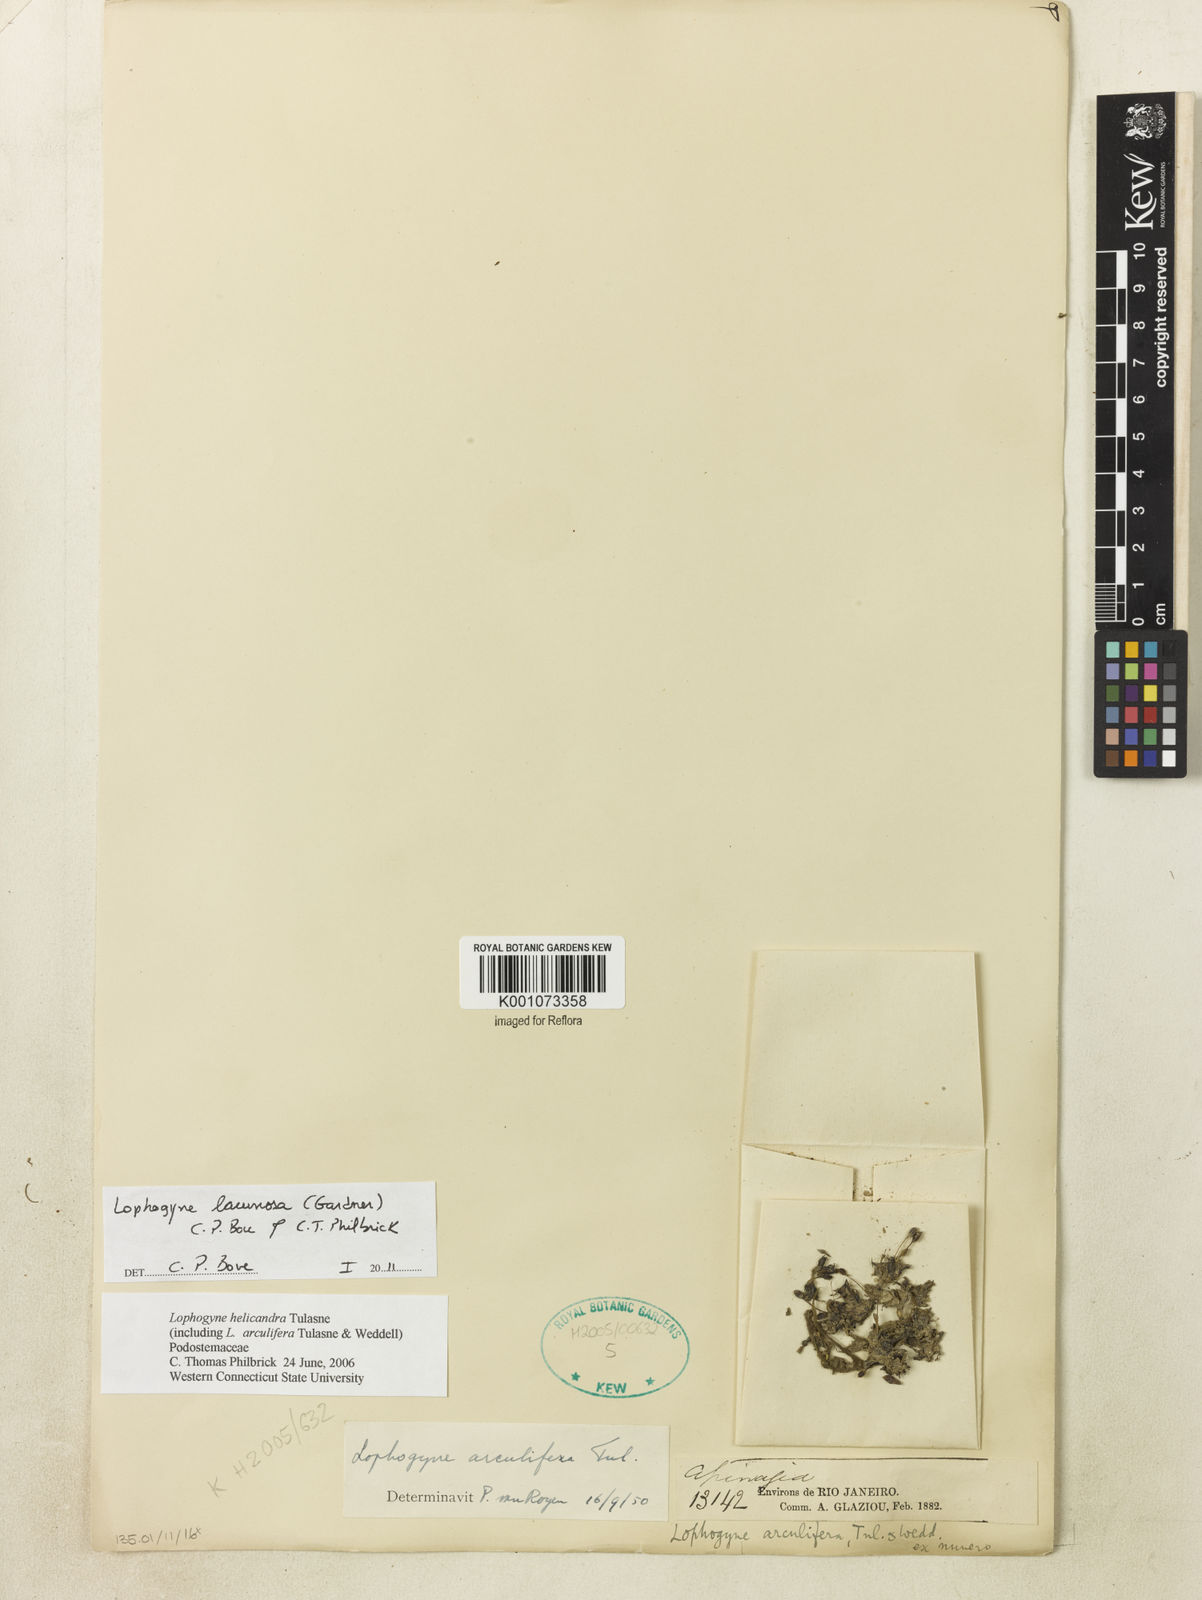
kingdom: Plantae
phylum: Tracheophyta
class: Magnoliopsida
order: Malpighiales
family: Podostemaceae
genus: Lophogyne
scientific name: Lophogyne lacunosa
